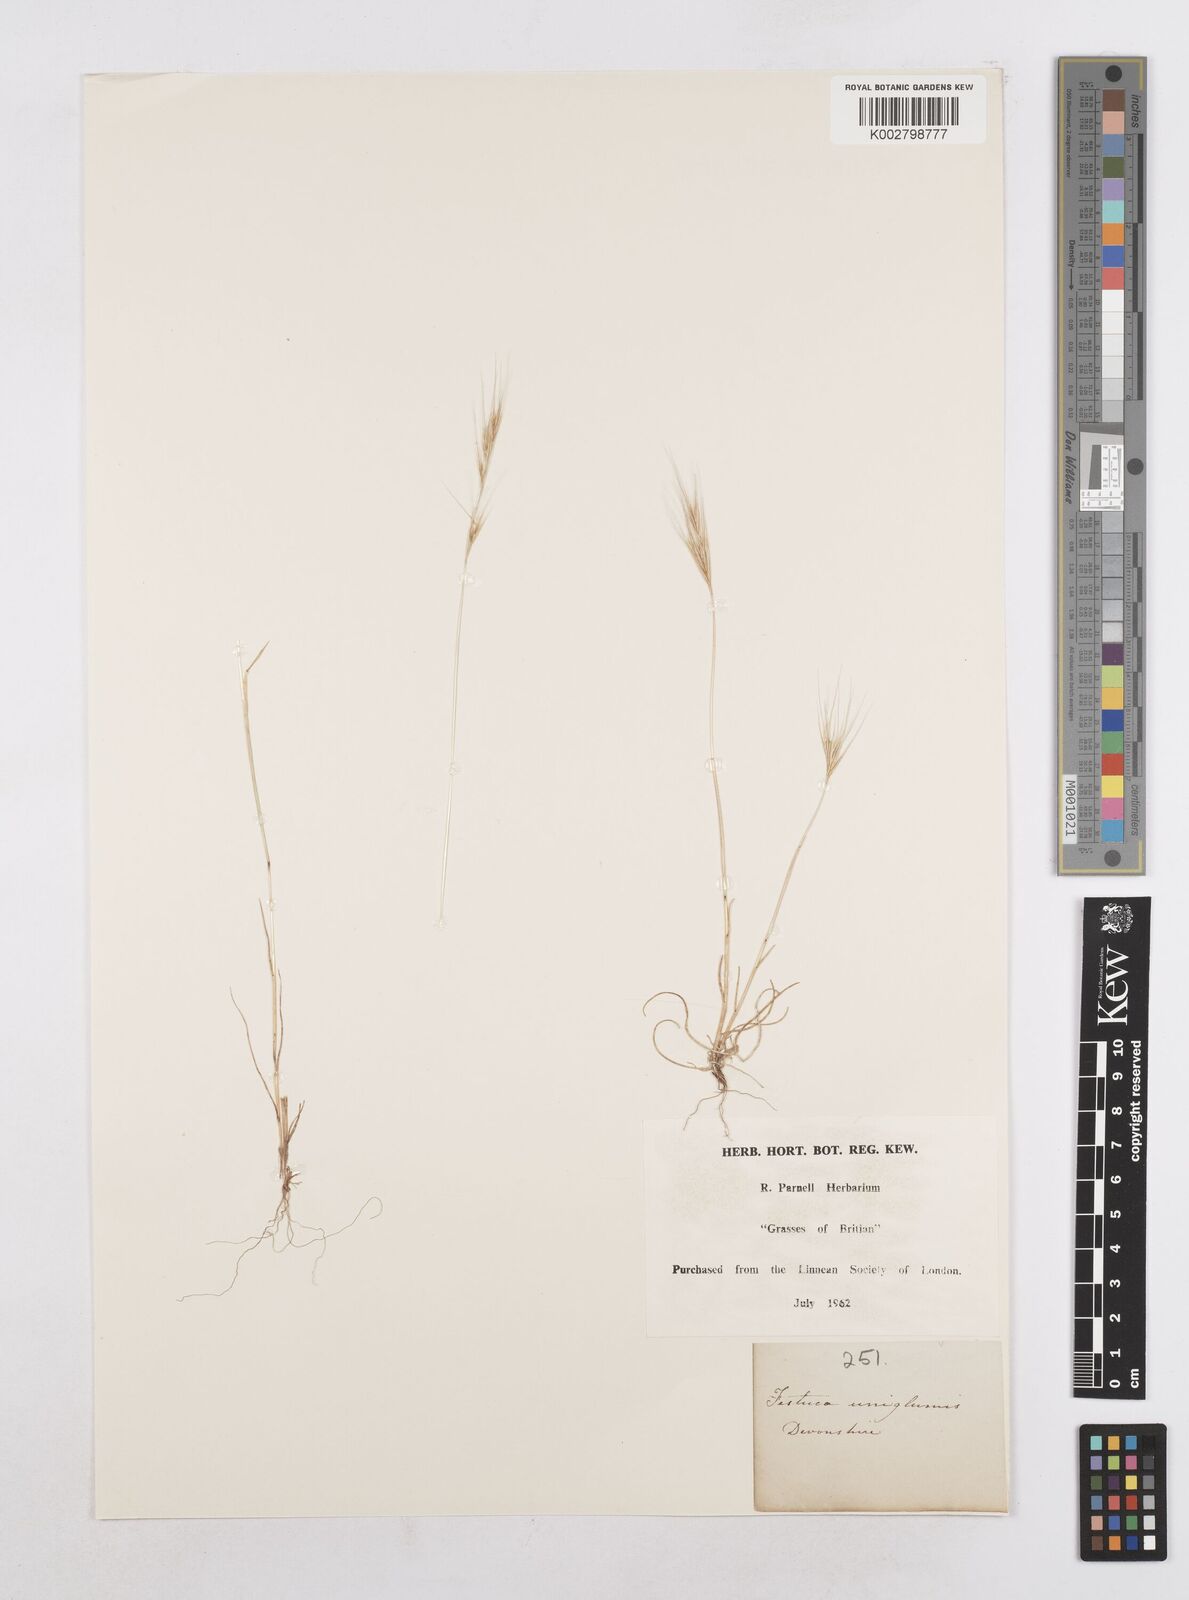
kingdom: Plantae
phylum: Tracheophyta
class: Liliopsida
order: Poales
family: Poaceae
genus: Festuca
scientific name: Festuca fasciculata
